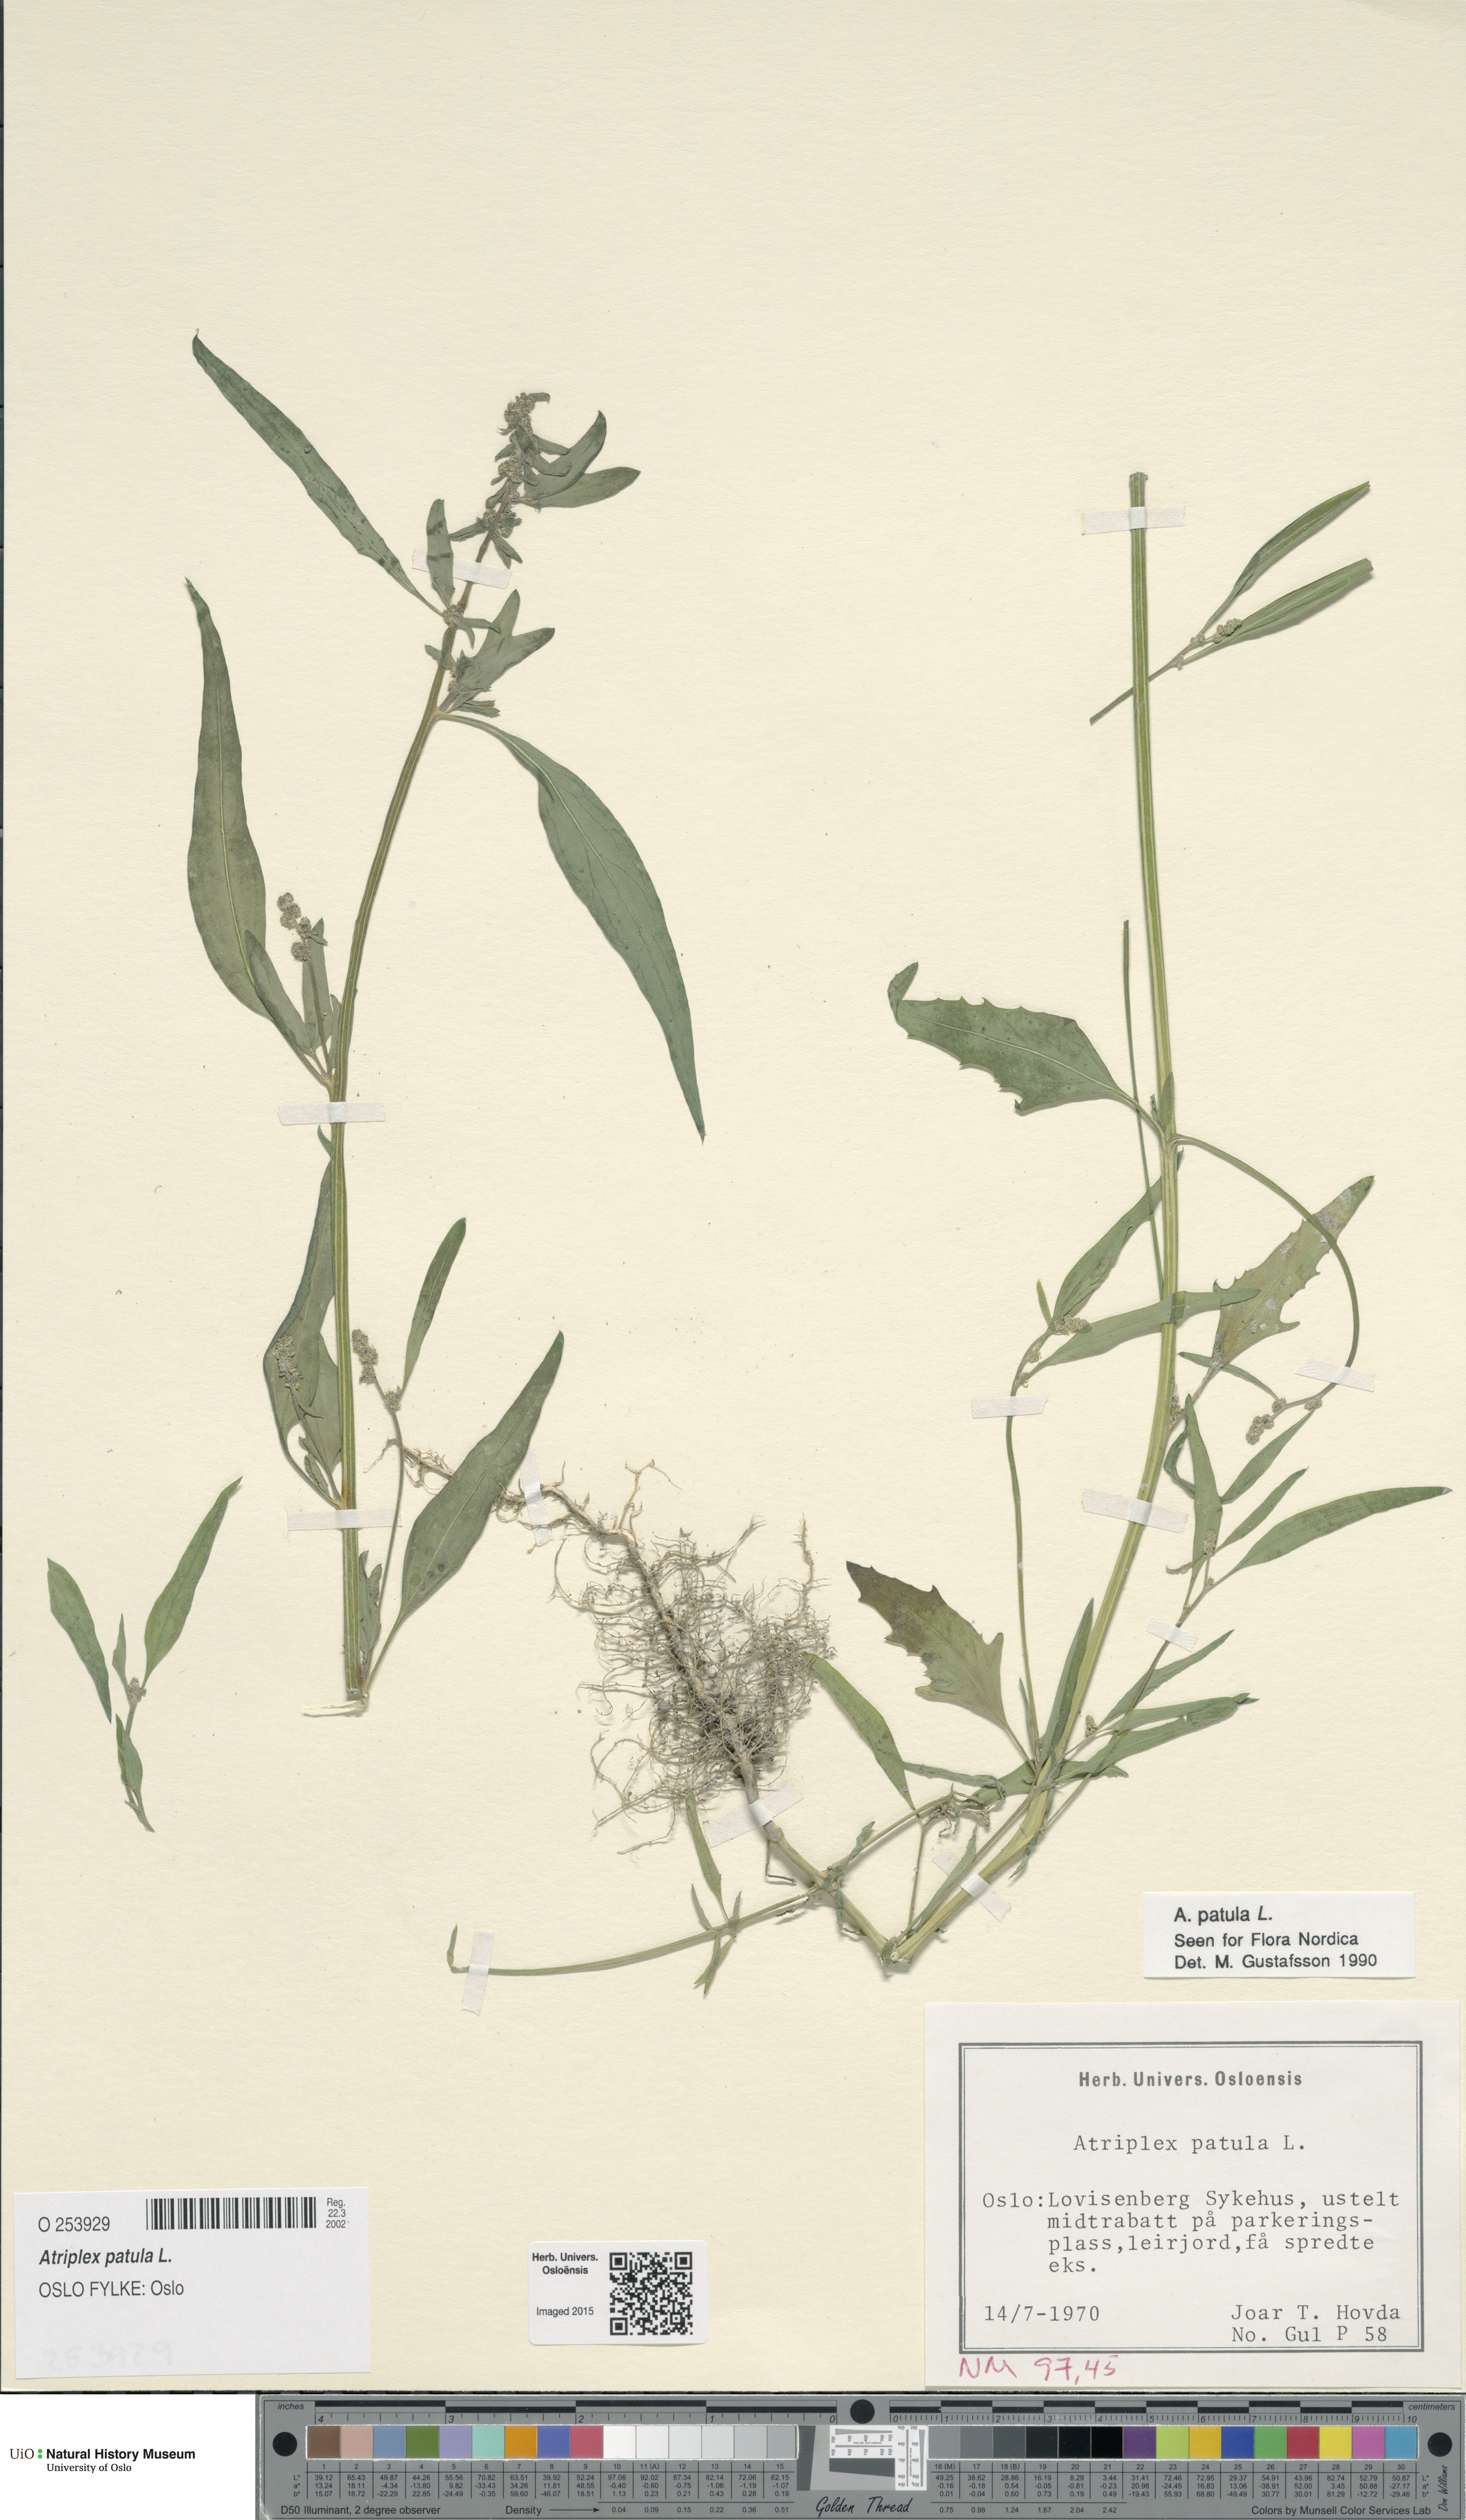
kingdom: Plantae
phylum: Tracheophyta
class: Magnoliopsida
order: Caryophyllales
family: Amaranthaceae
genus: Atriplex
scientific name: Atriplex patula
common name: Common orache
